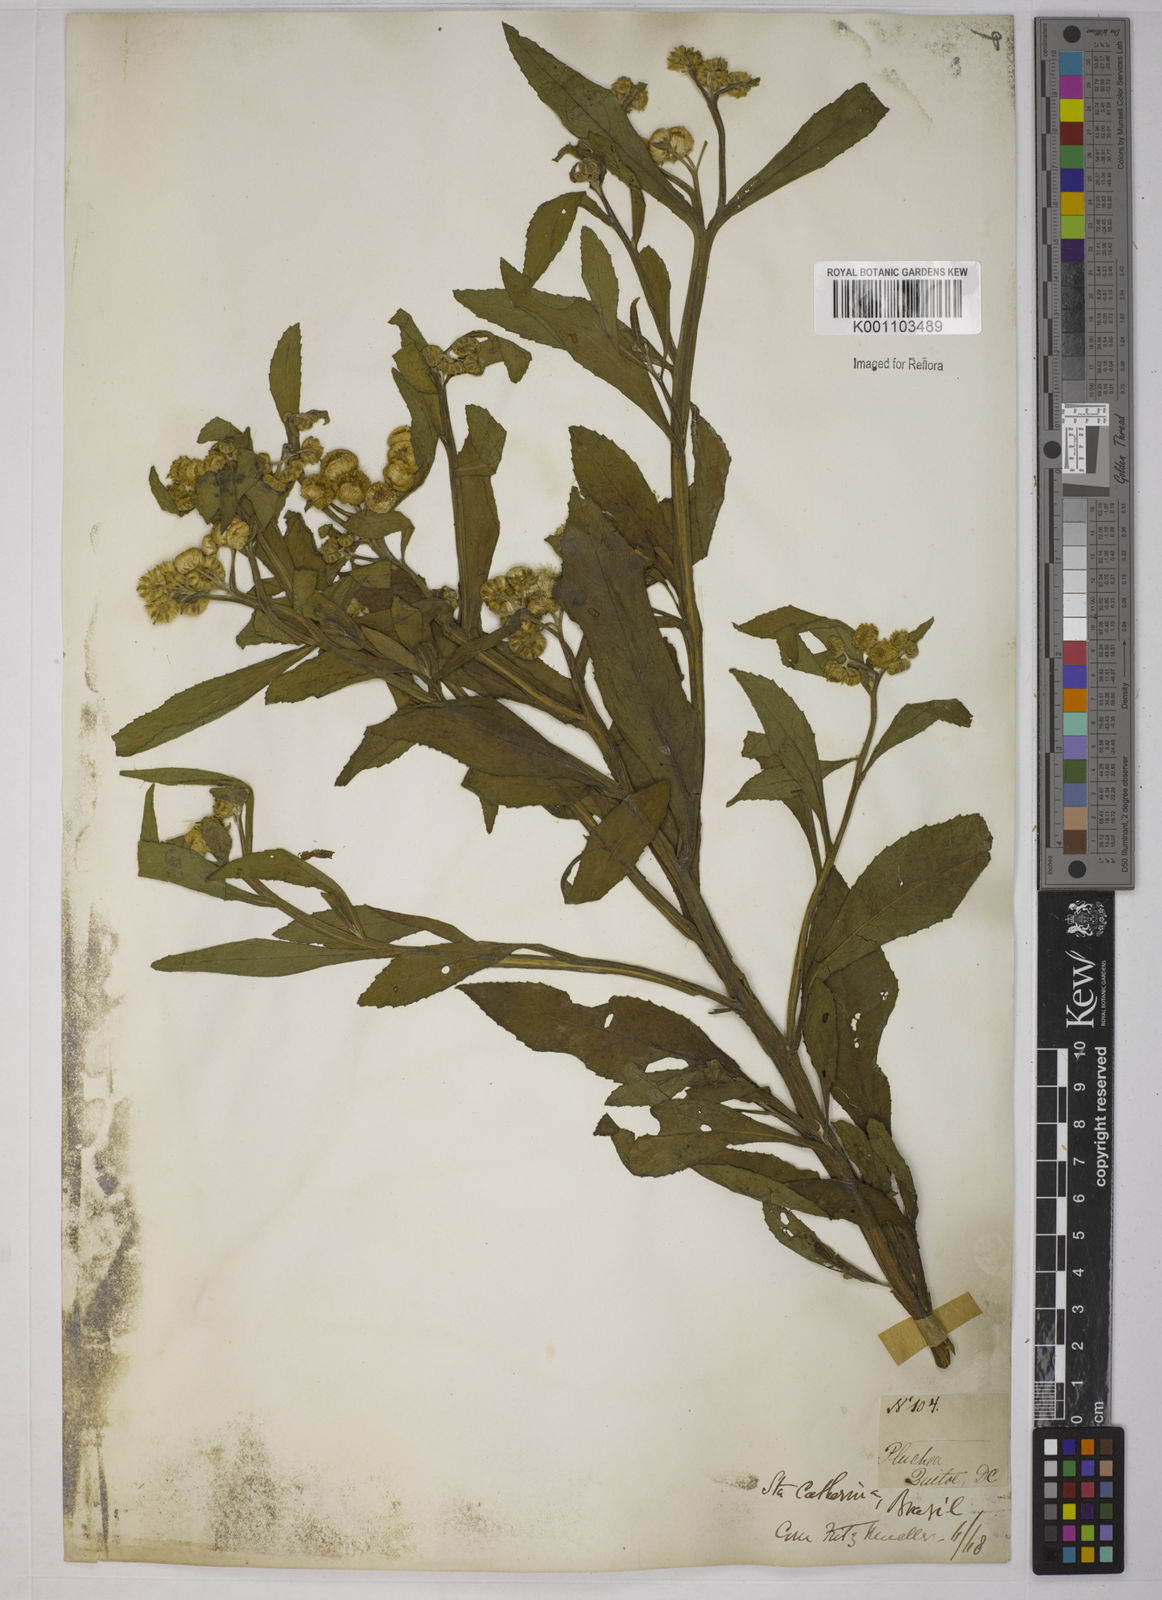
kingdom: Plantae
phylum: Tracheophyta
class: Magnoliopsida
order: Asterales
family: Asteraceae
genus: Pluchea
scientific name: Pluchea sagittalis
